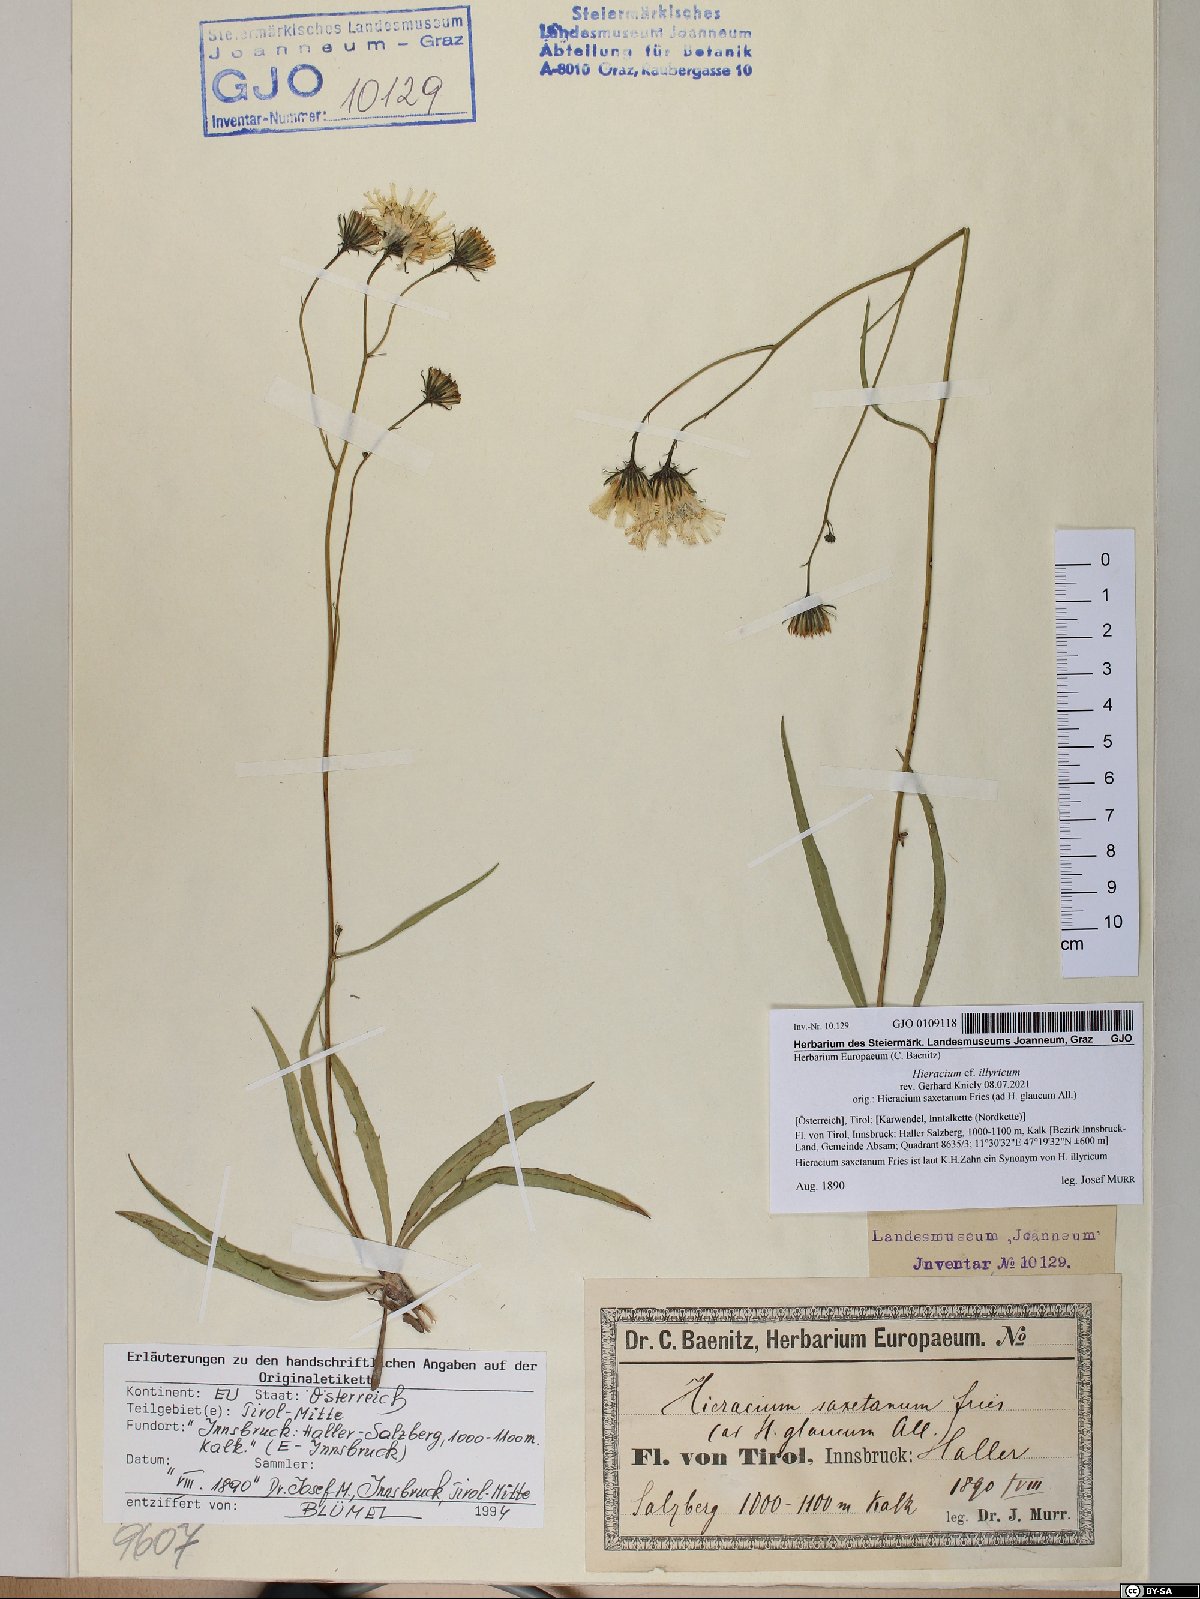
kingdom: Plantae
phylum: Tracheophyta
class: Magnoliopsida
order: Asterales
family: Asteraceae
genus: Hieracium
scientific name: Hieracium calcareum
